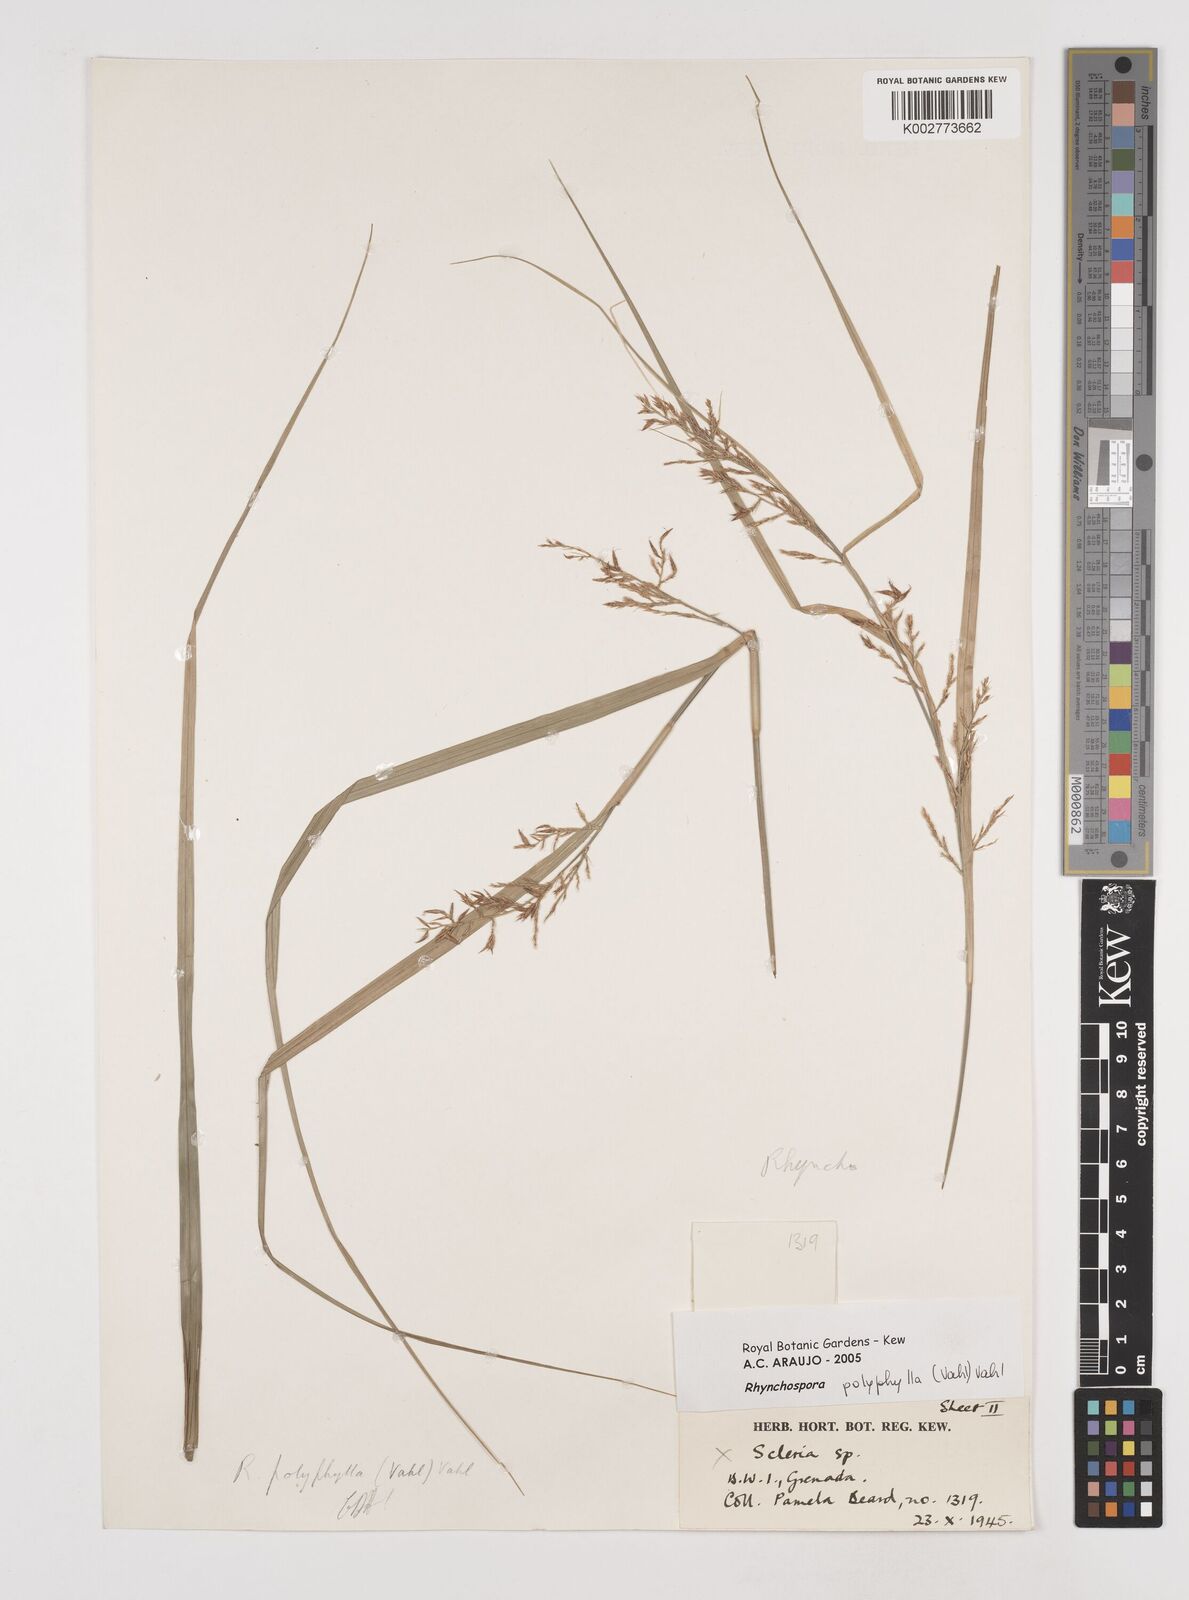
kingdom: Plantae
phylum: Tracheophyta
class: Liliopsida
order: Poales
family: Cyperaceae
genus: Rhynchospora
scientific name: Rhynchospora polyphylla
